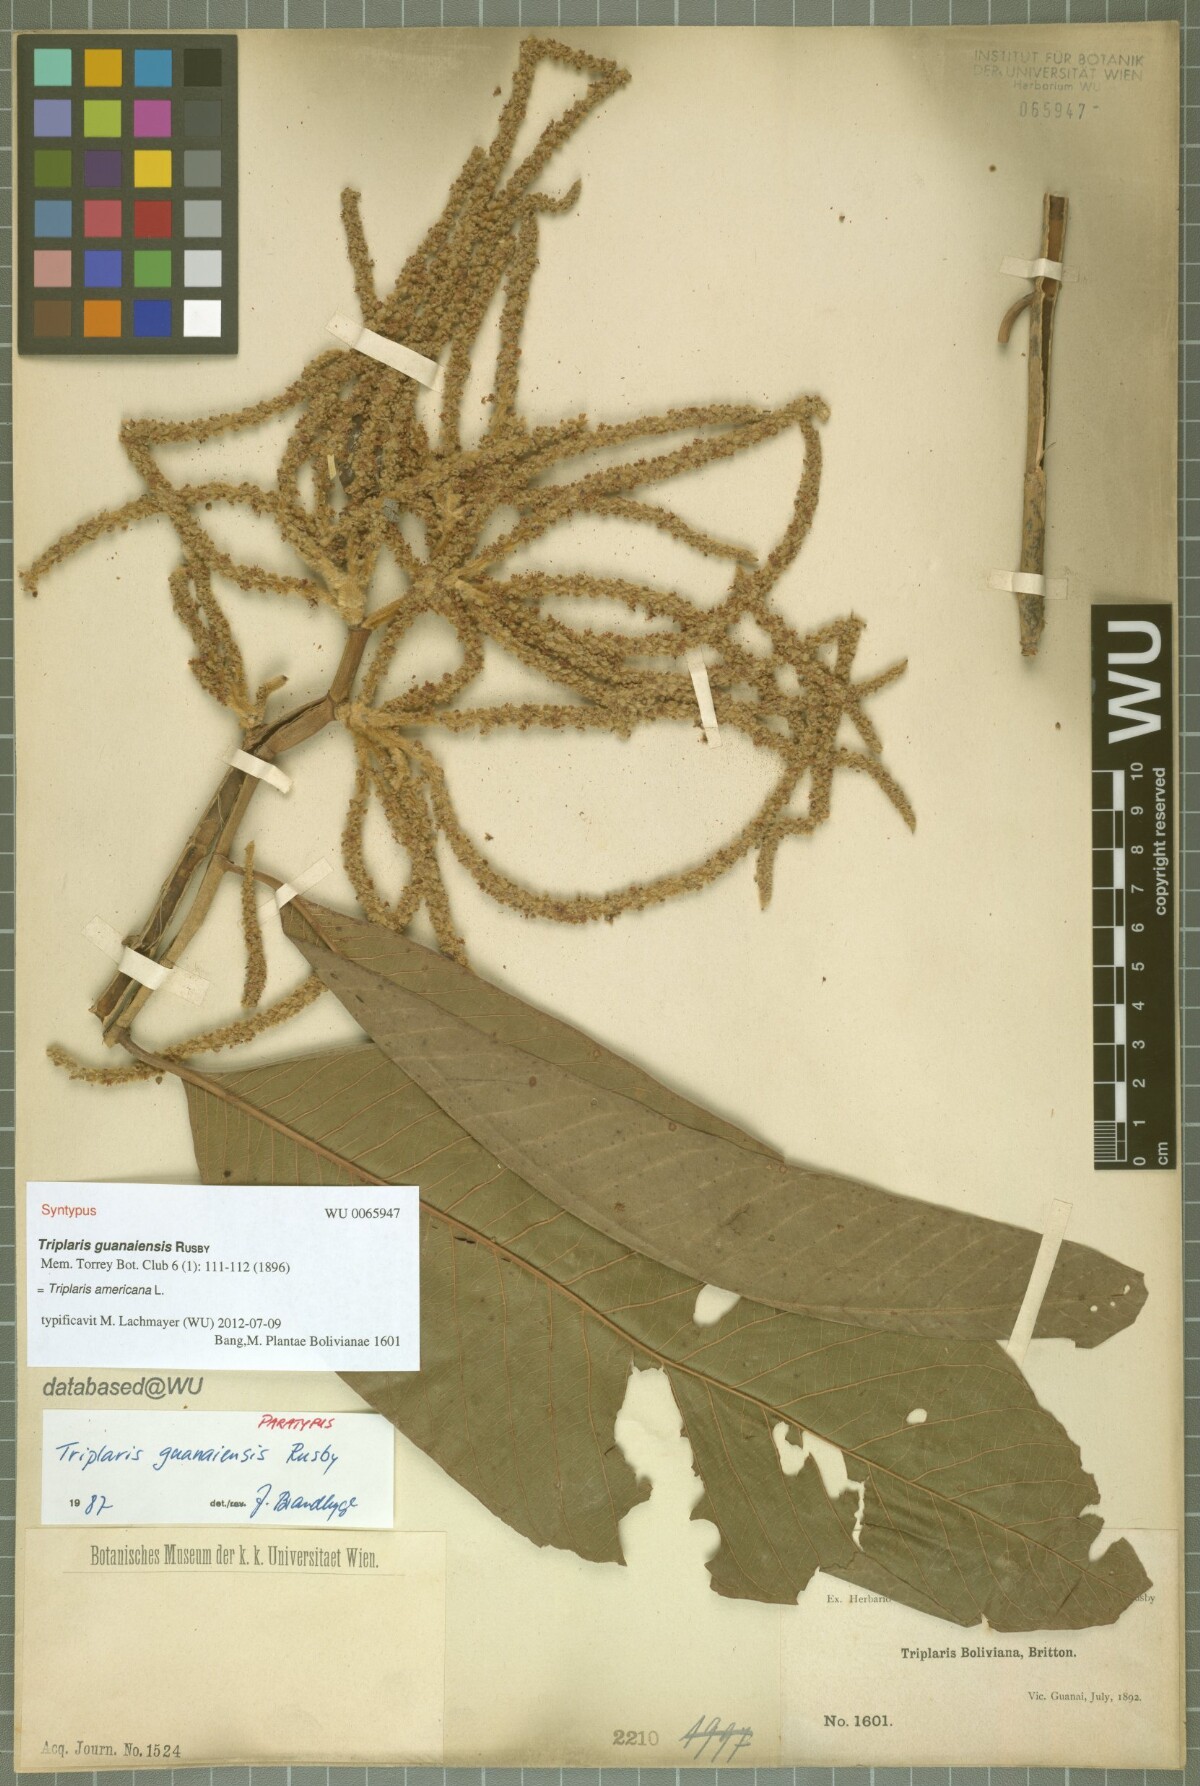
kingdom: Plantae
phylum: Tracheophyta
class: Magnoliopsida
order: Caryophyllales
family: Polygonaceae
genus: Triplaris
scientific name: Triplaris americana
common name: Ant-tree
